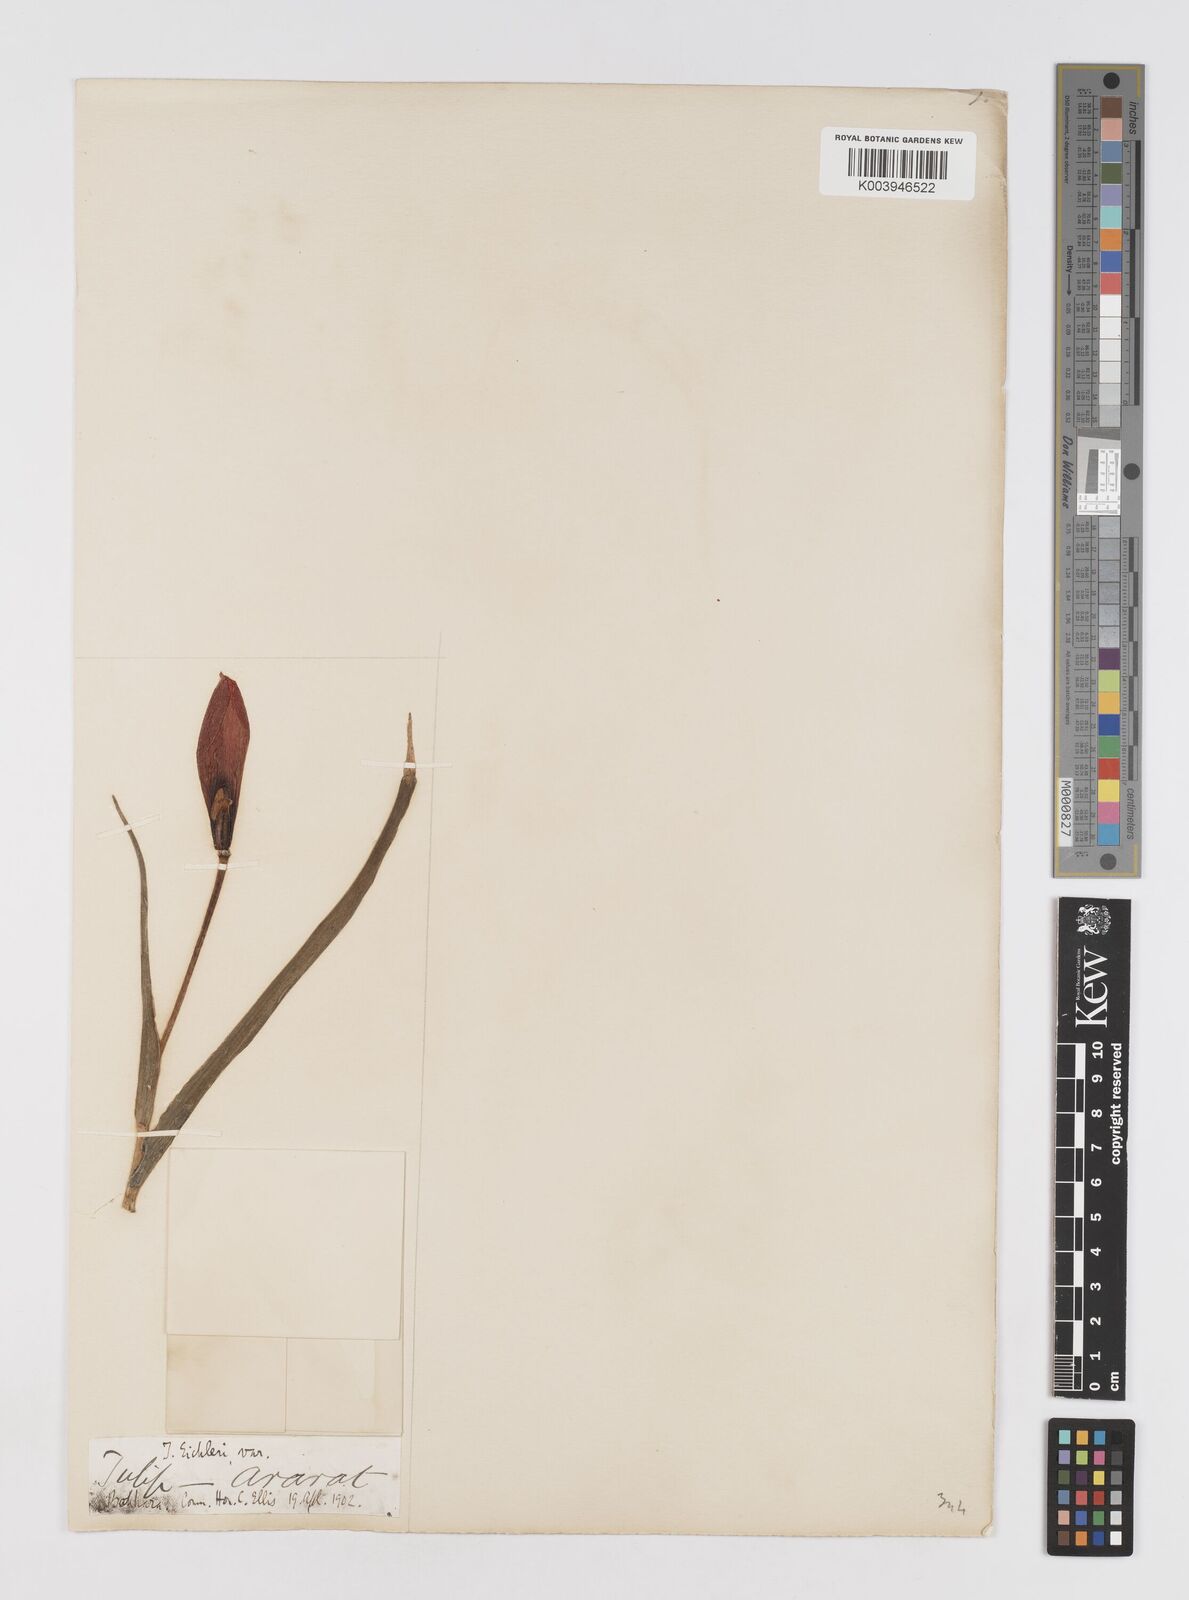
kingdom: Plantae
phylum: Tracheophyta
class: Liliopsida
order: Liliales
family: Liliaceae
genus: Tulipa
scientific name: Tulipa
